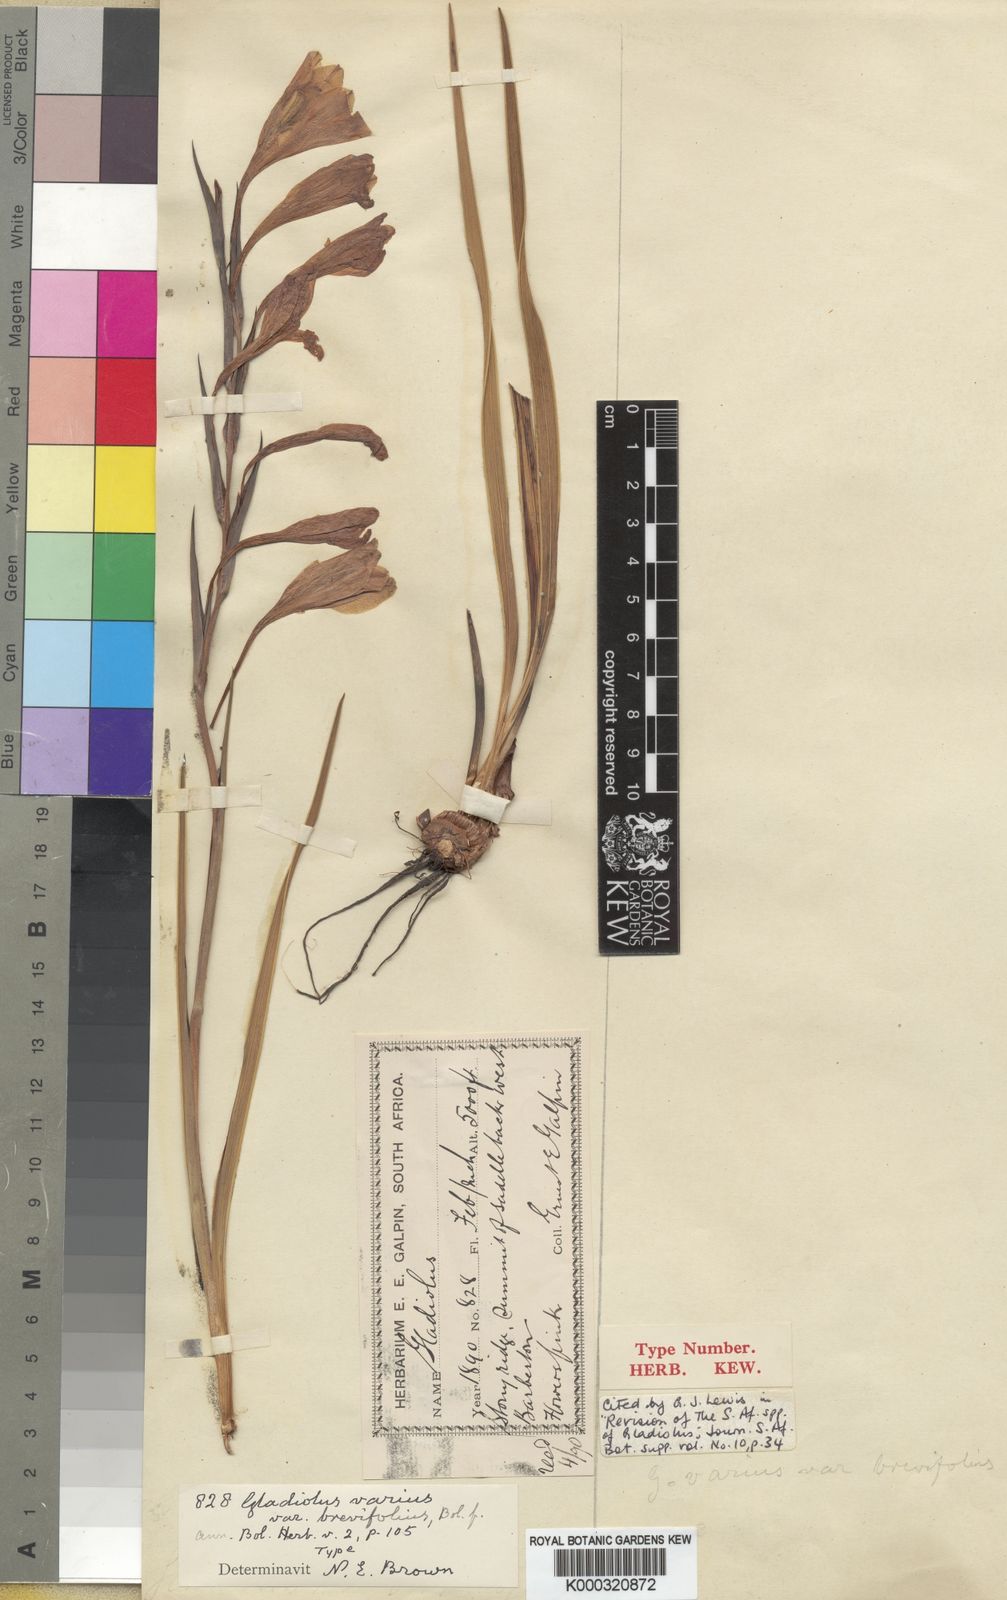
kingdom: Plantae
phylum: Tracheophyta
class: Liliopsida
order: Asparagales
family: Iridaceae
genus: Gladiolus
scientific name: Gladiolus varius
